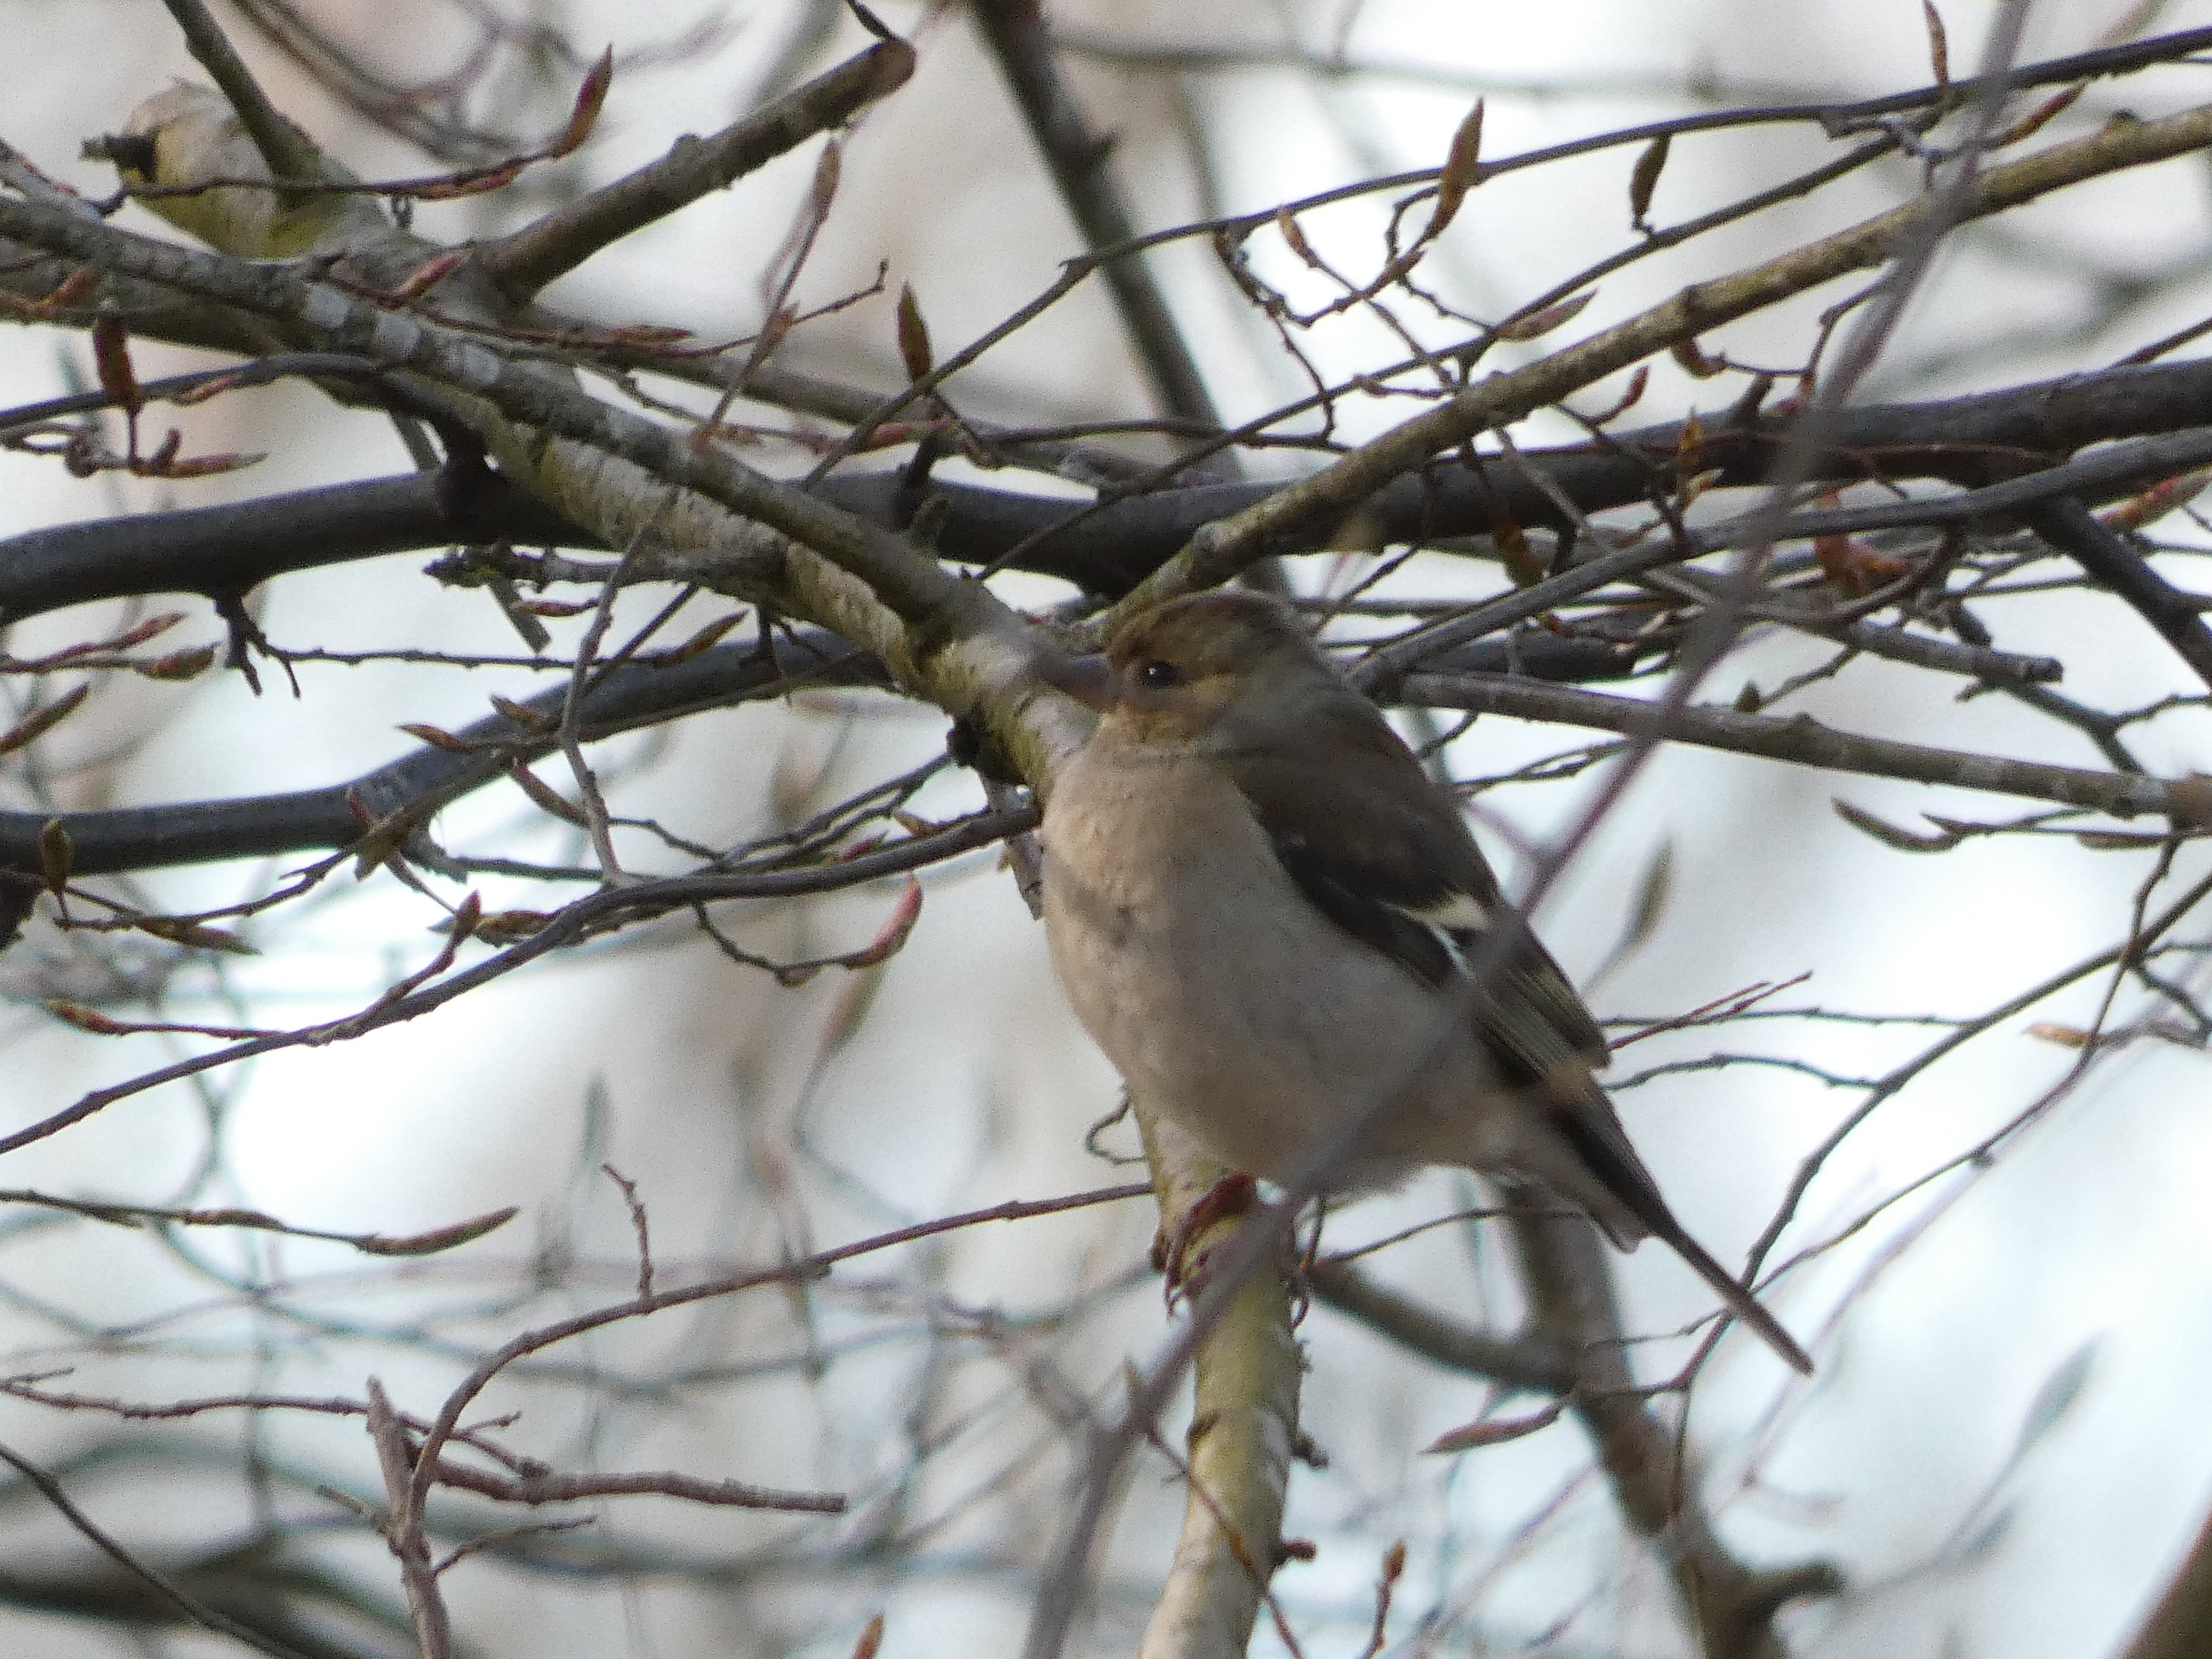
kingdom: Animalia
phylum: Chordata
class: Aves
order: Passeriformes
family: Fringillidae
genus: Fringilla
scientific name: Fringilla coelebs
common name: Bogfinke
